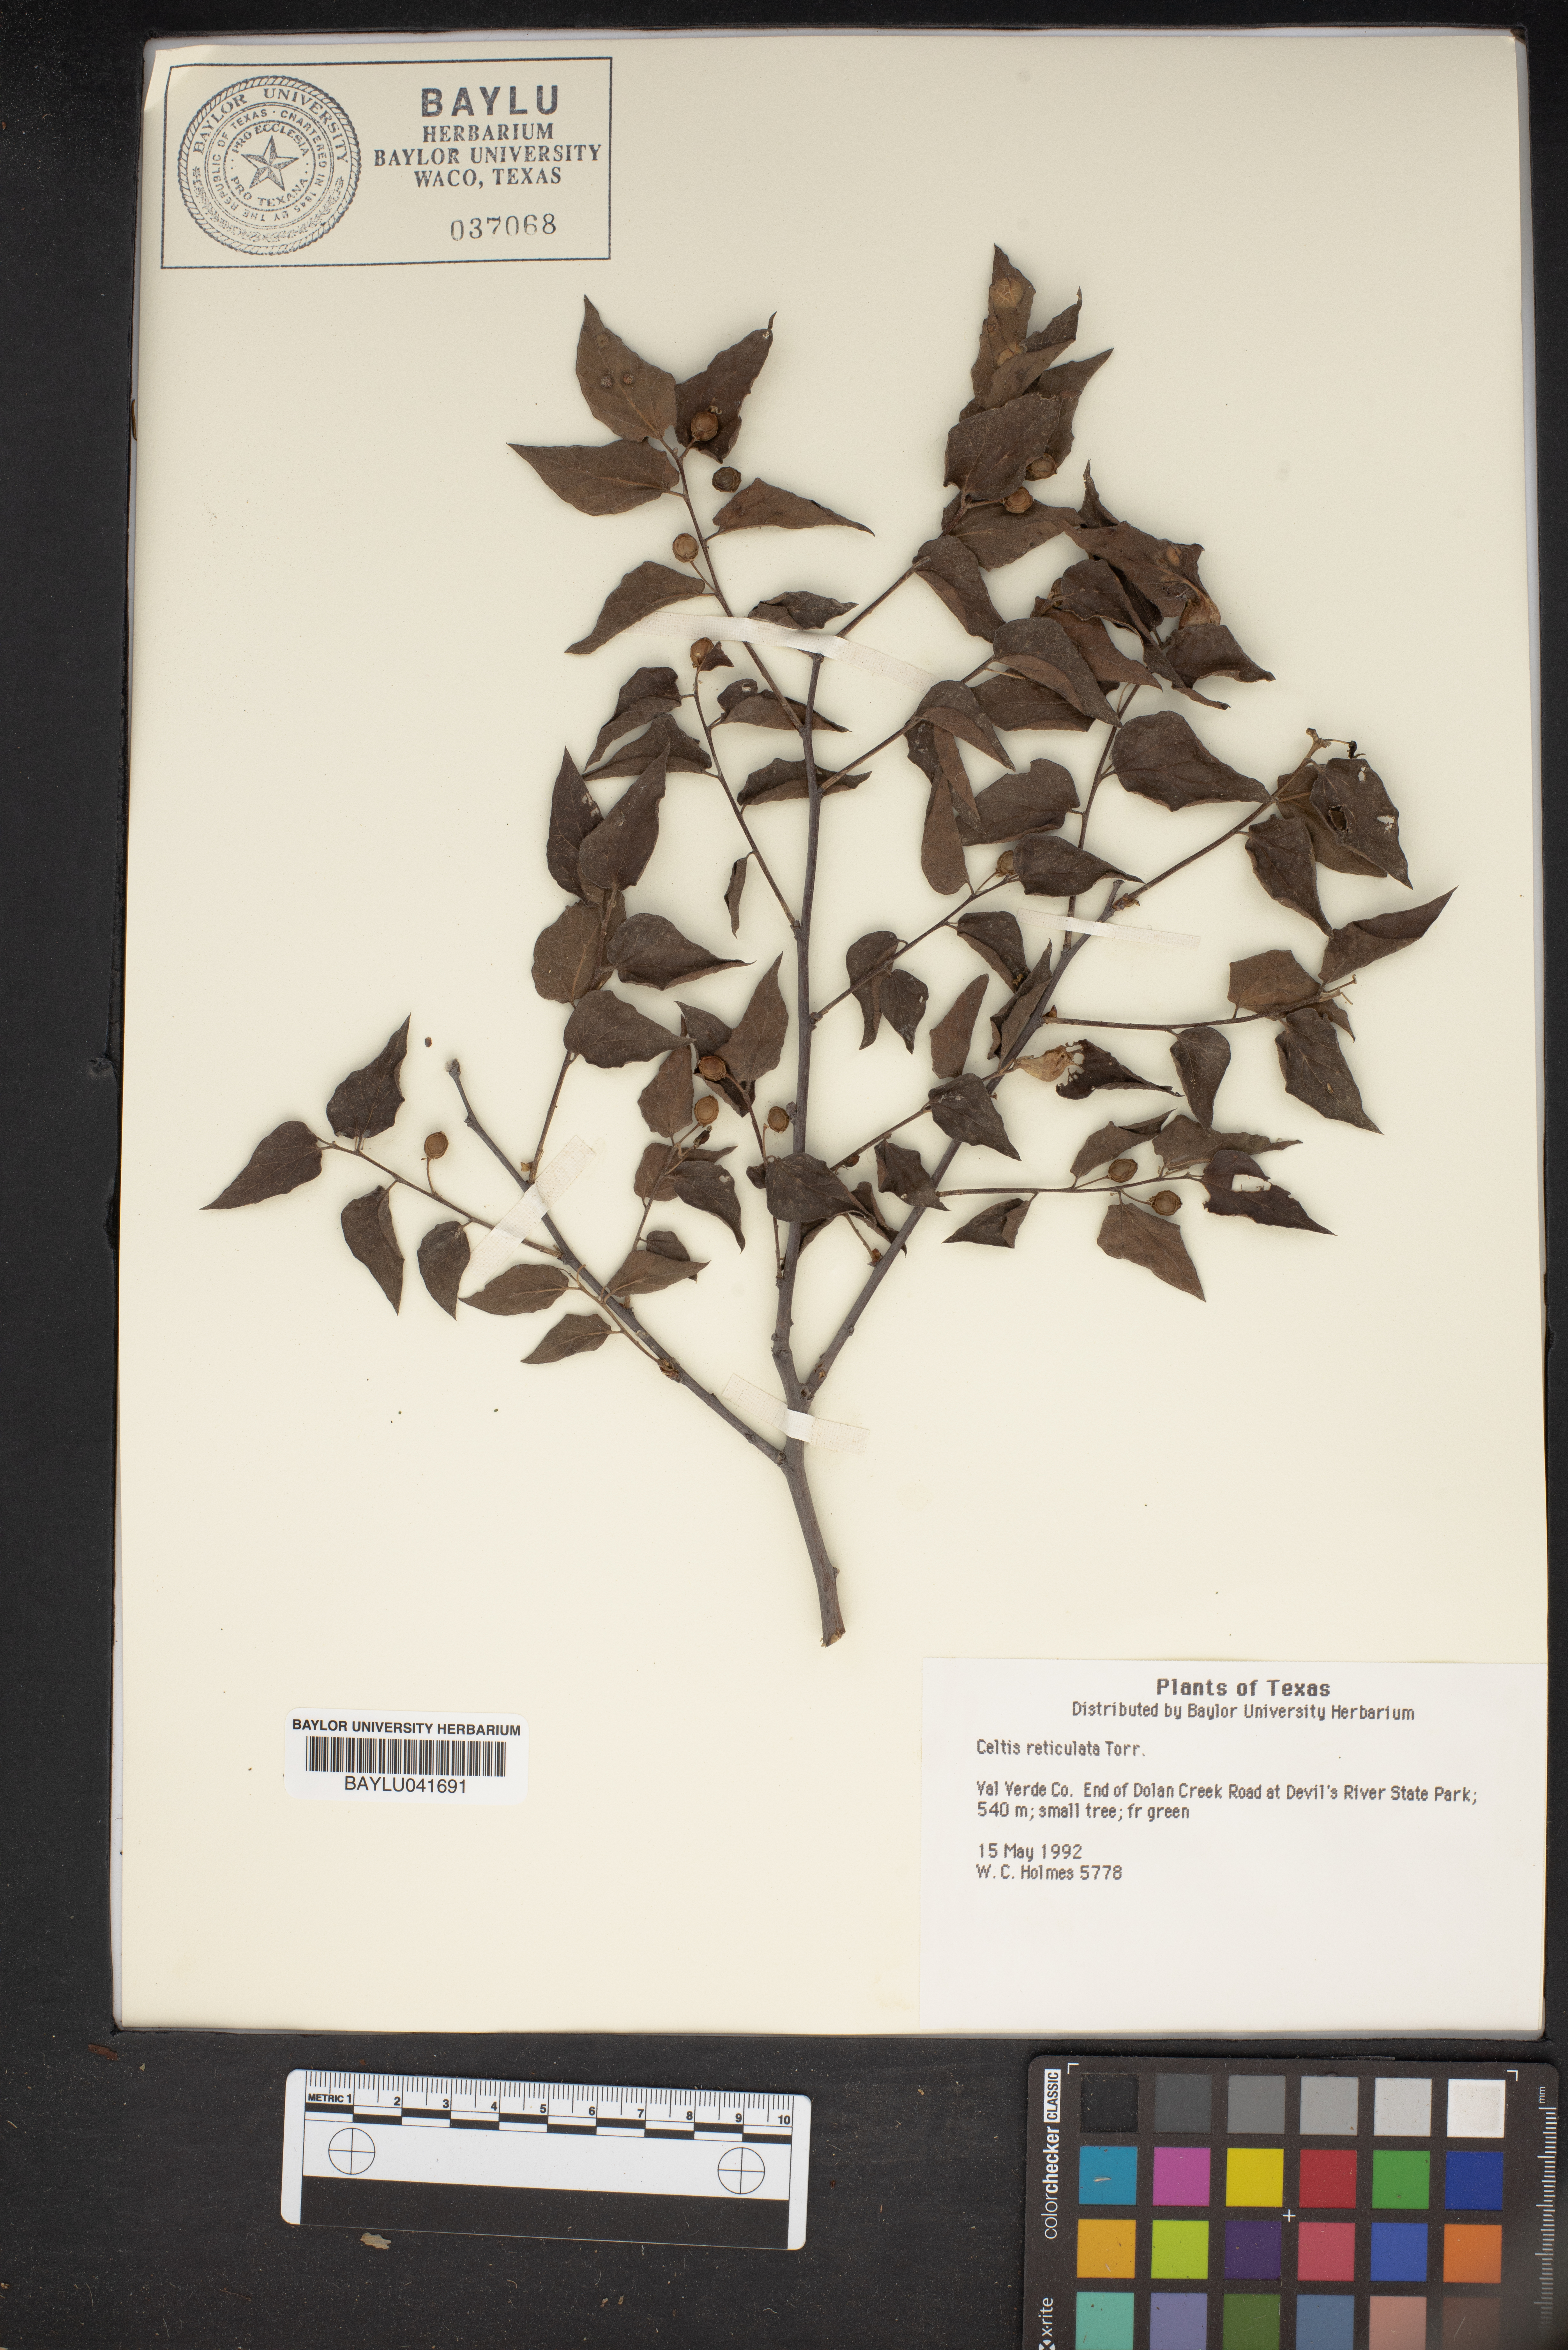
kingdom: Plantae
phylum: Tracheophyta
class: Magnoliopsida
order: Rosales
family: Cannabaceae
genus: Celtis
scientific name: Celtis reticulata
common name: Netleaf hackberry
